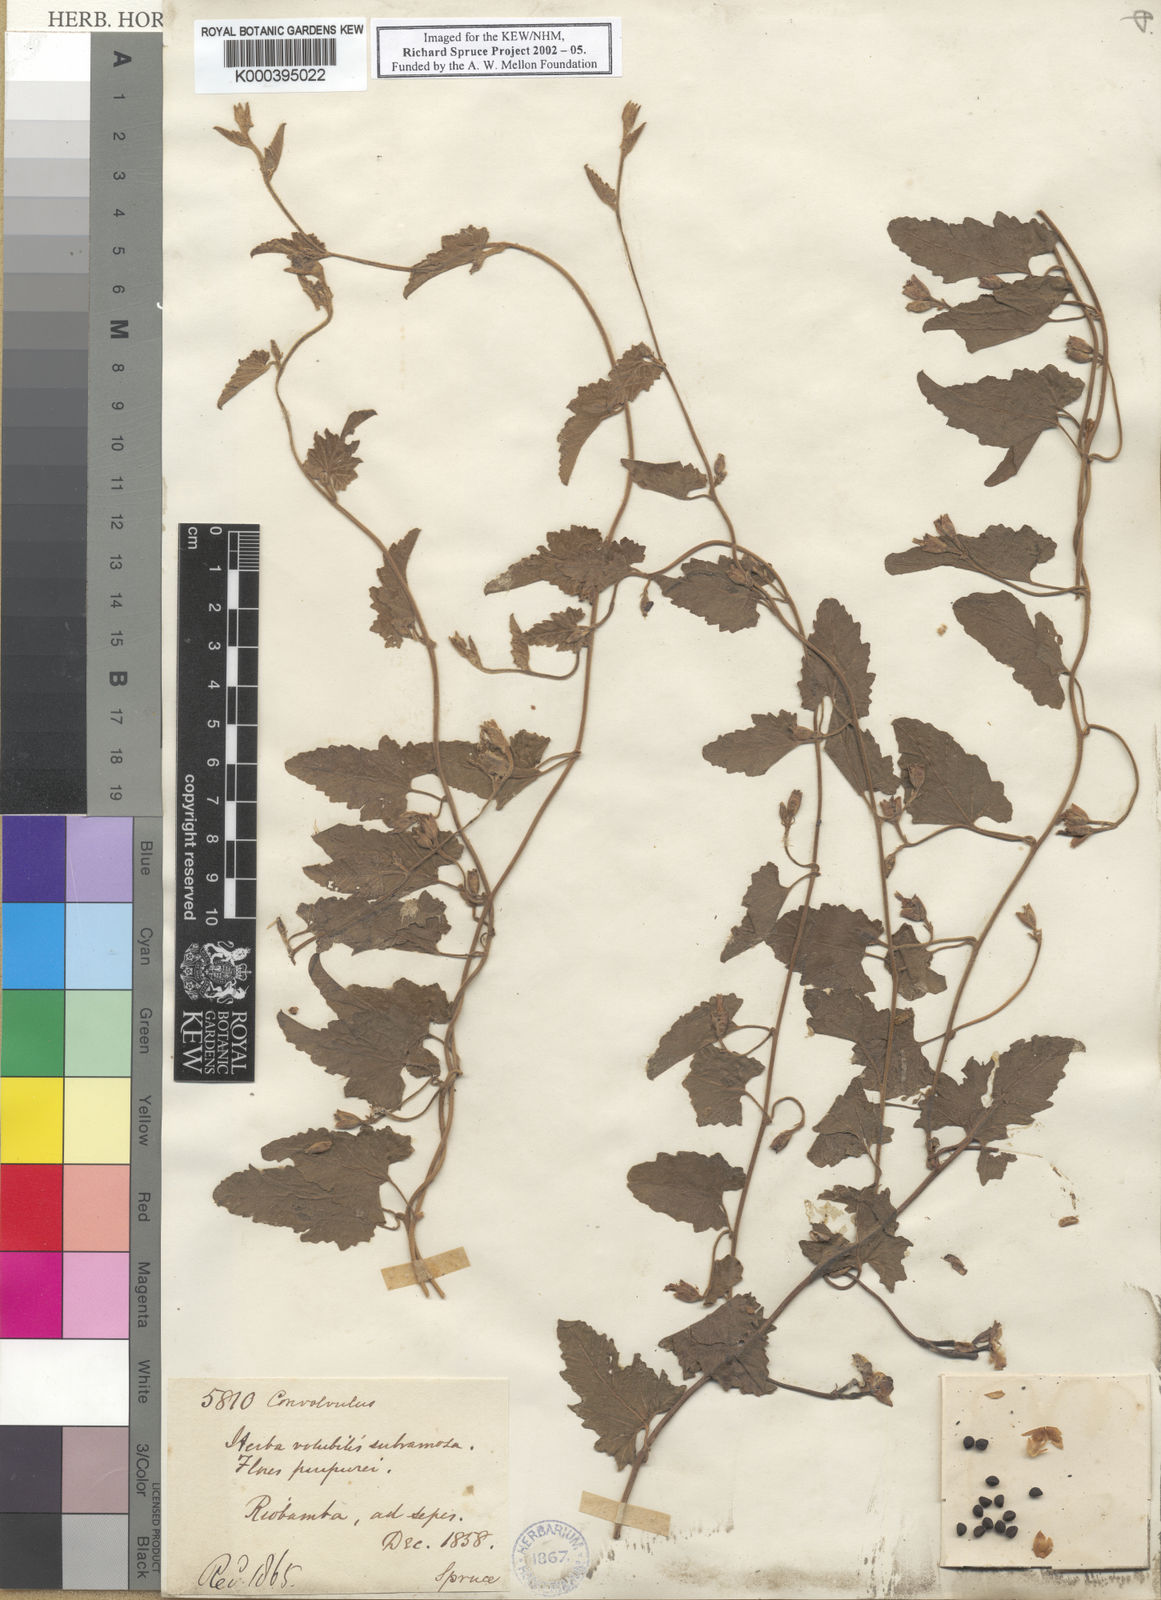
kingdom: Plantae
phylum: Tracheophyta
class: Magnoliopsida
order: Solanales
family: Convolvulaceae
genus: Convolvulus
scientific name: Convolvulus
